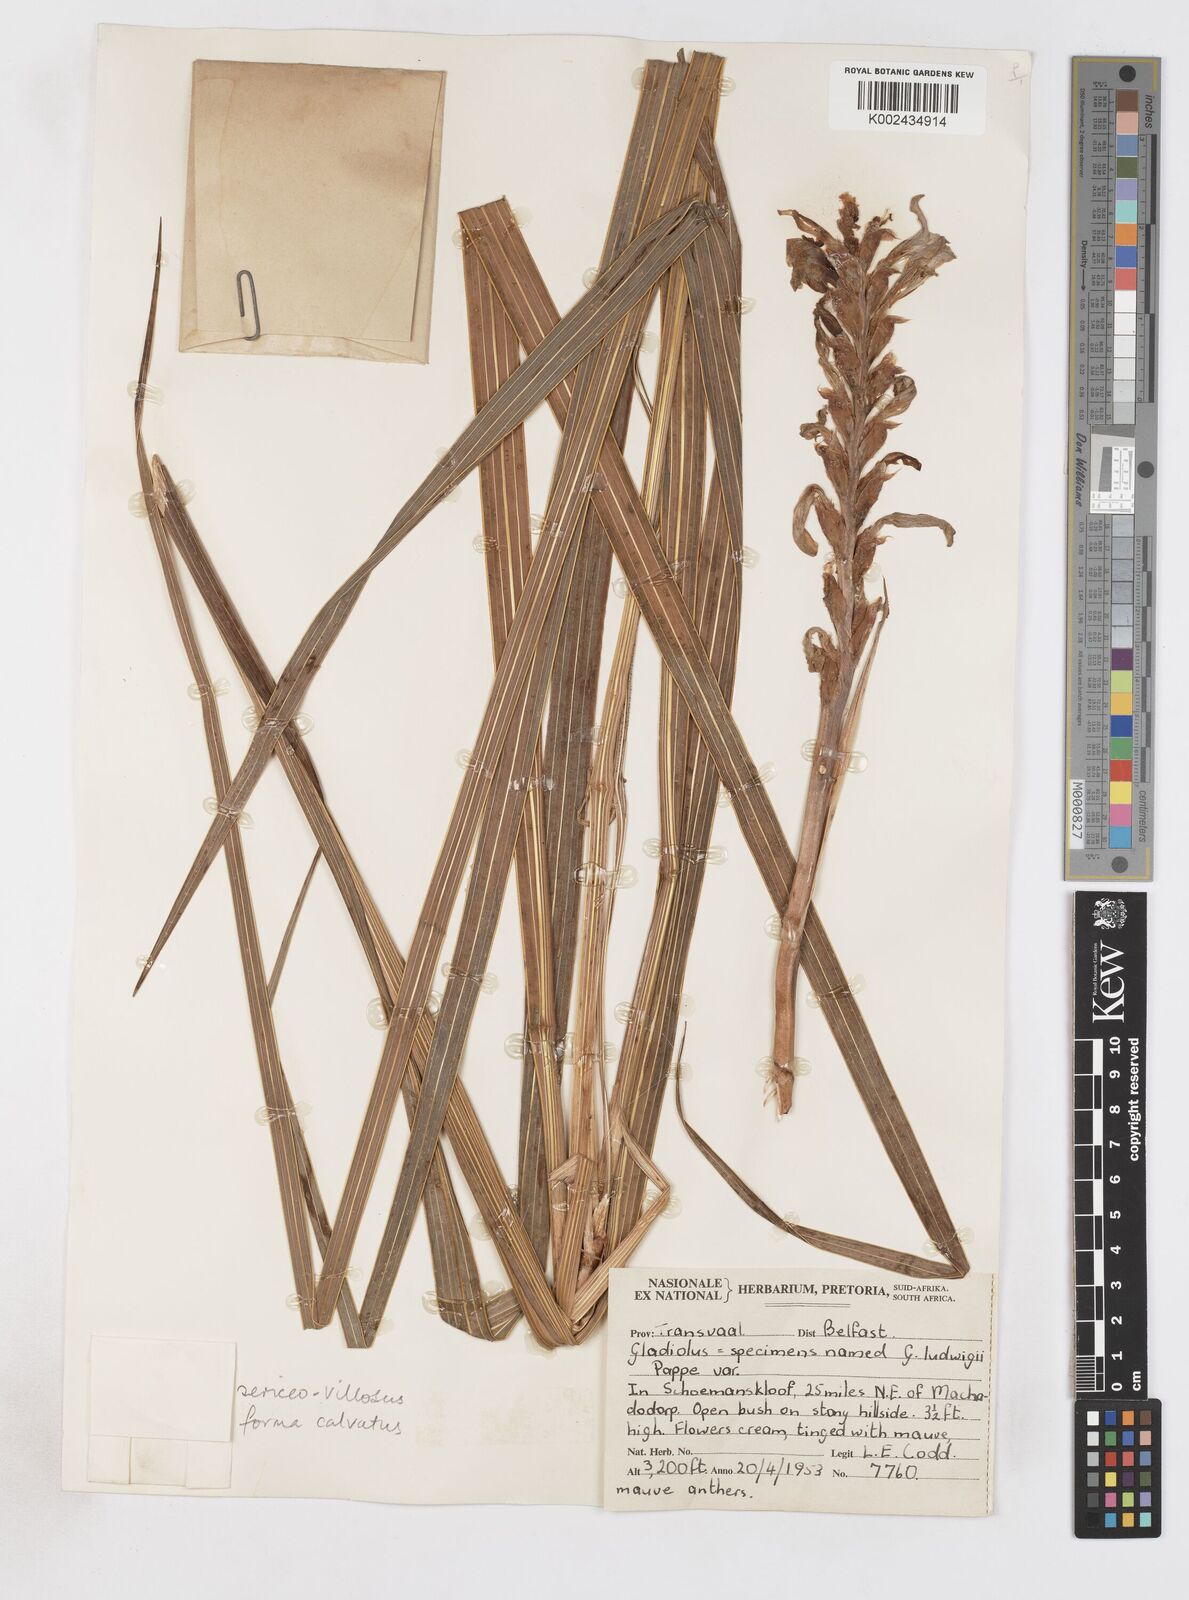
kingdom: Plantae
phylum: Tracheophyta
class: Liliopsida
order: Asparagales
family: Iridaceae
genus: Gladiolus
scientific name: Gladiolus sericeovillosus
